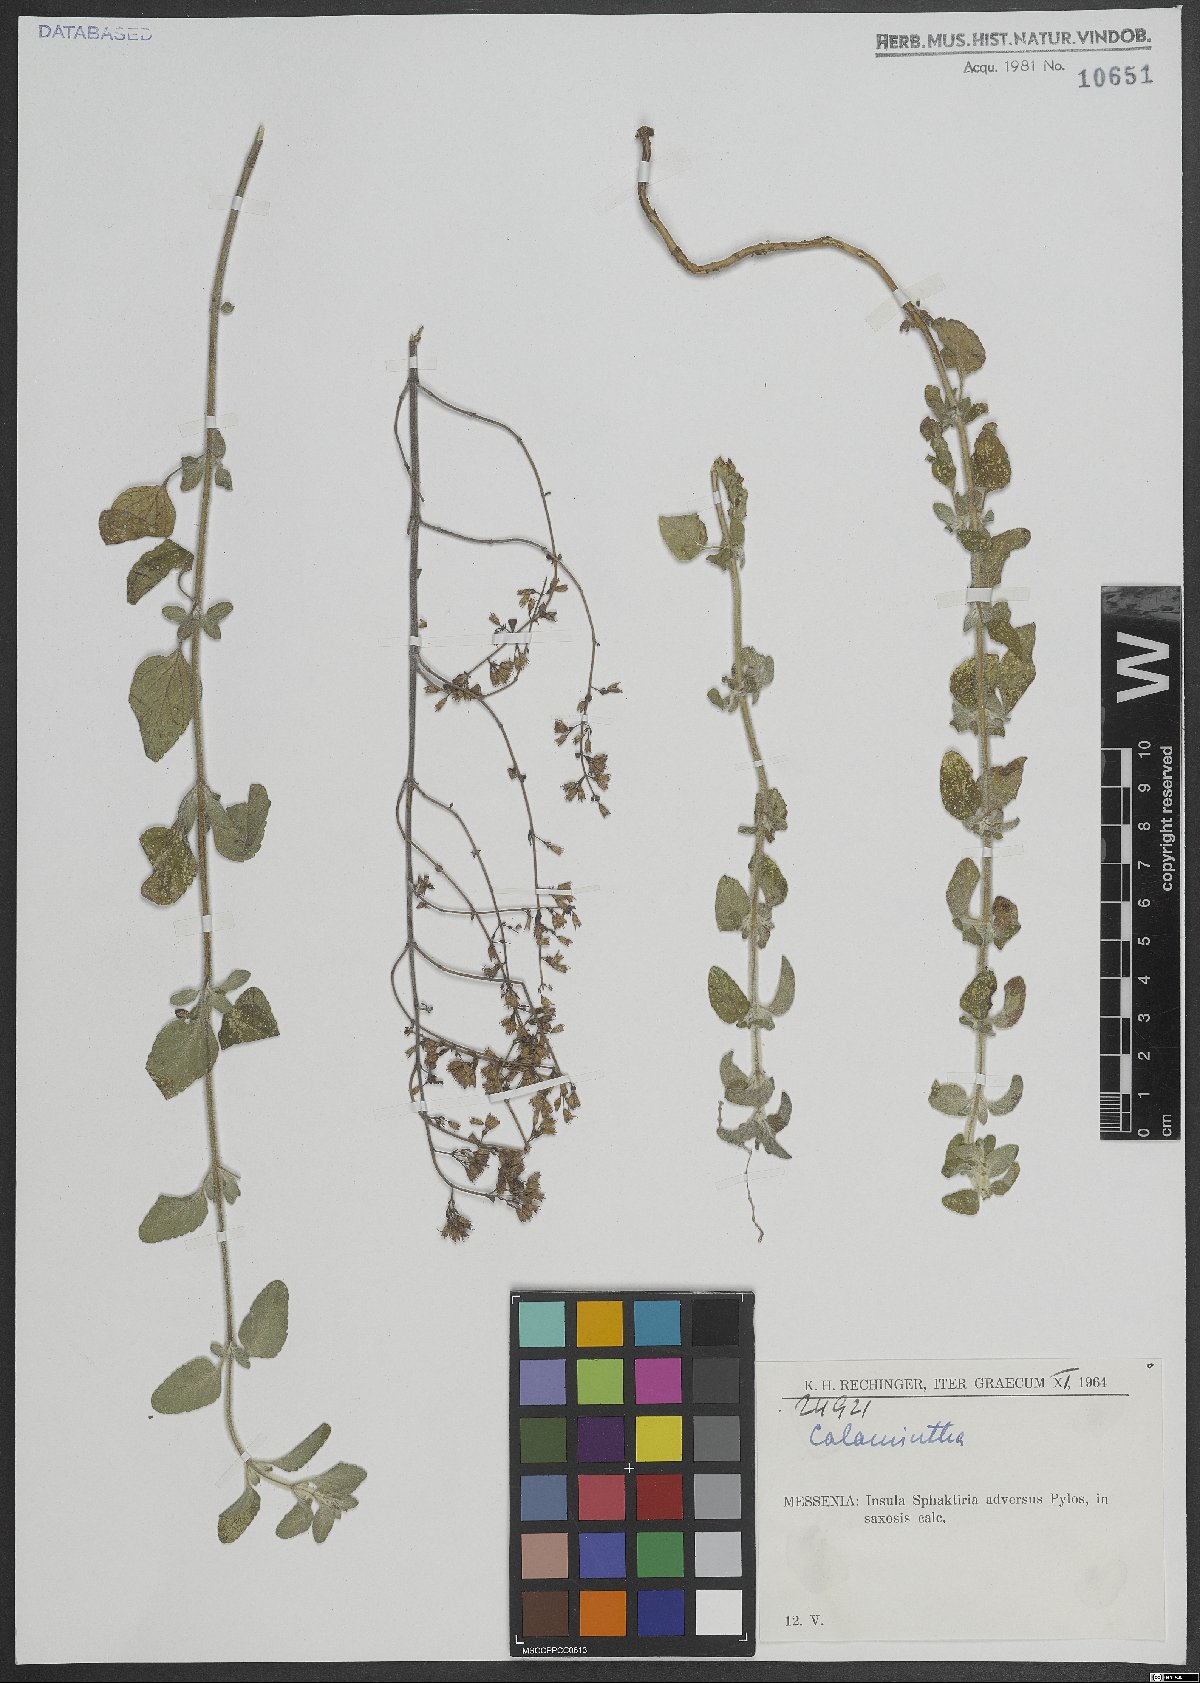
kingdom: Plantae
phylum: Tracheophyta
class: Magnoliopsida
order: Lamiales
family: Lamiaceae
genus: Calamintha
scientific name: Calamintha
